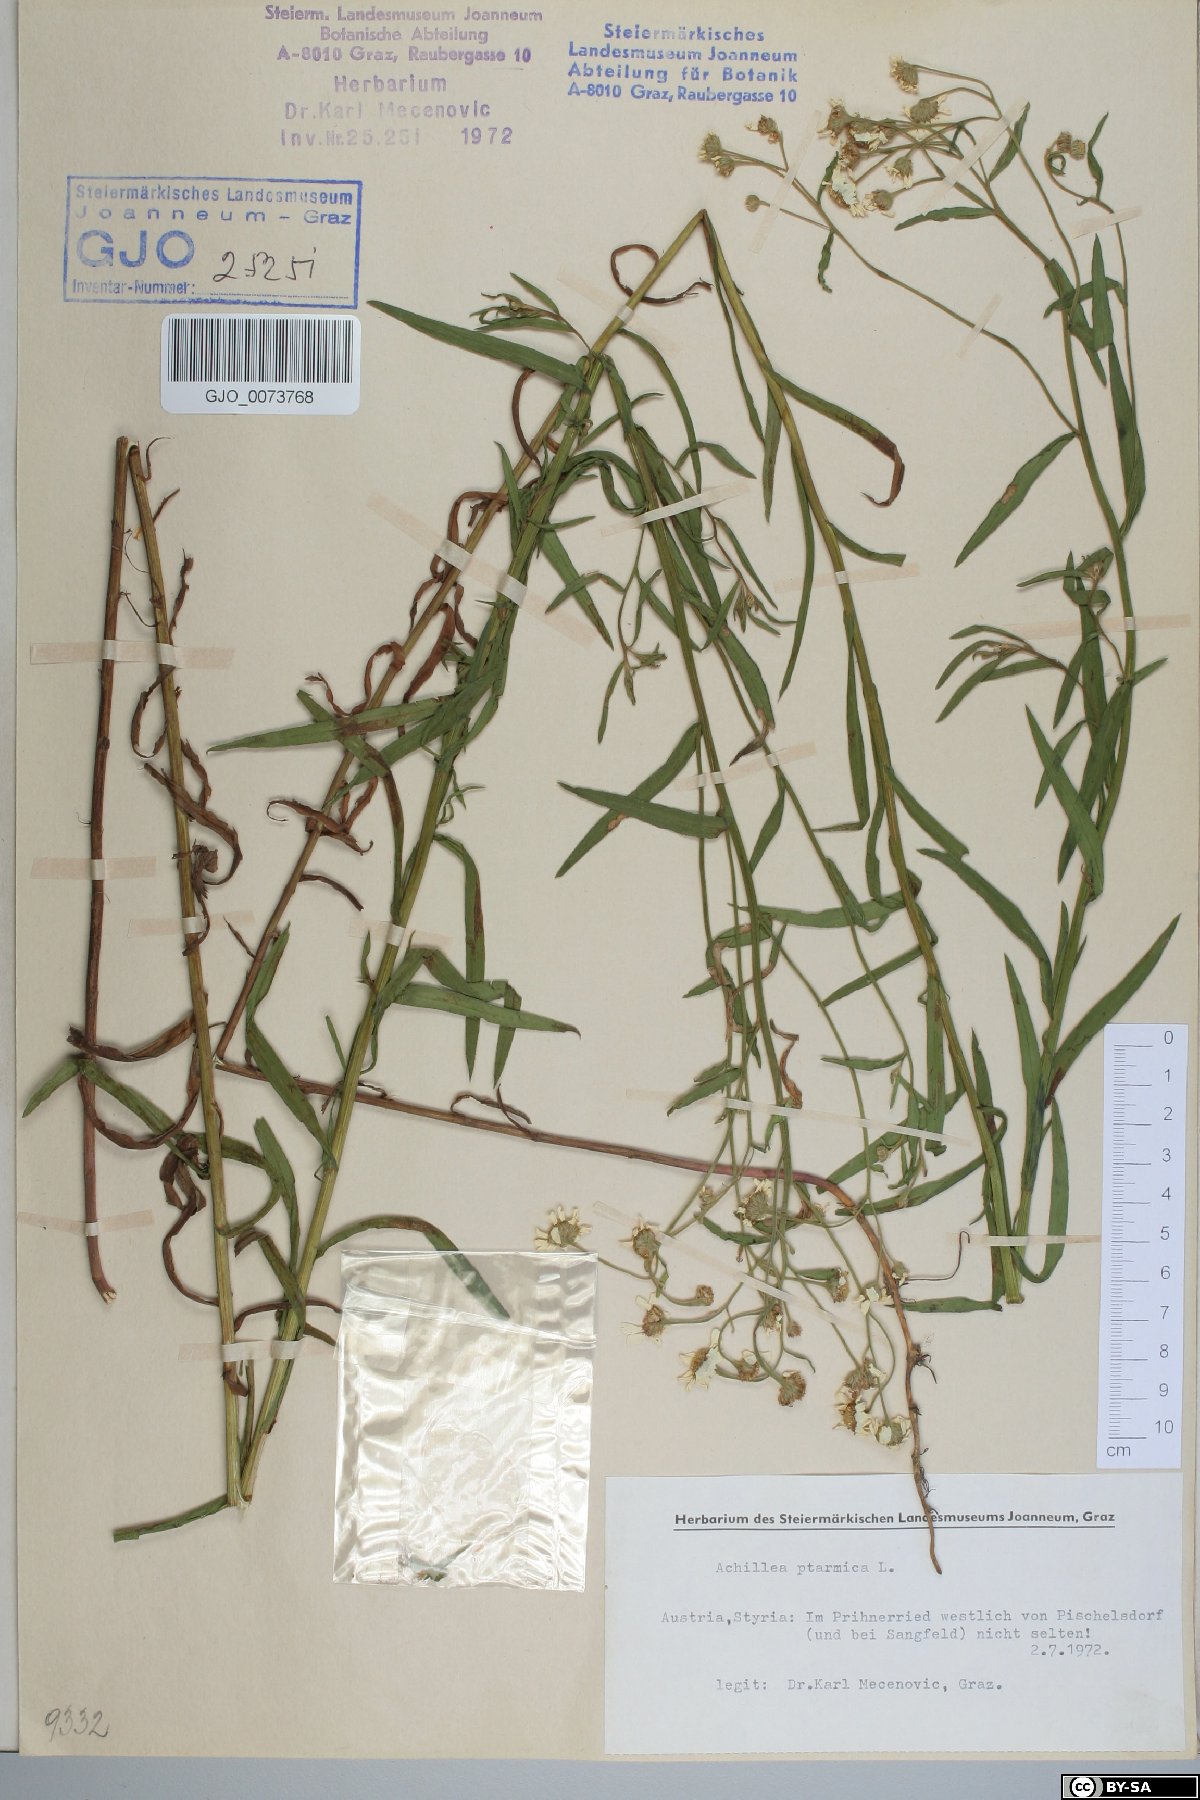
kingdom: Plantae
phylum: Tracheophyta
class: Magnoliopsida
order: Asterales
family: Asteraceae
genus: Achillea
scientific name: Achillea ptarmica
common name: Sneezeweed
